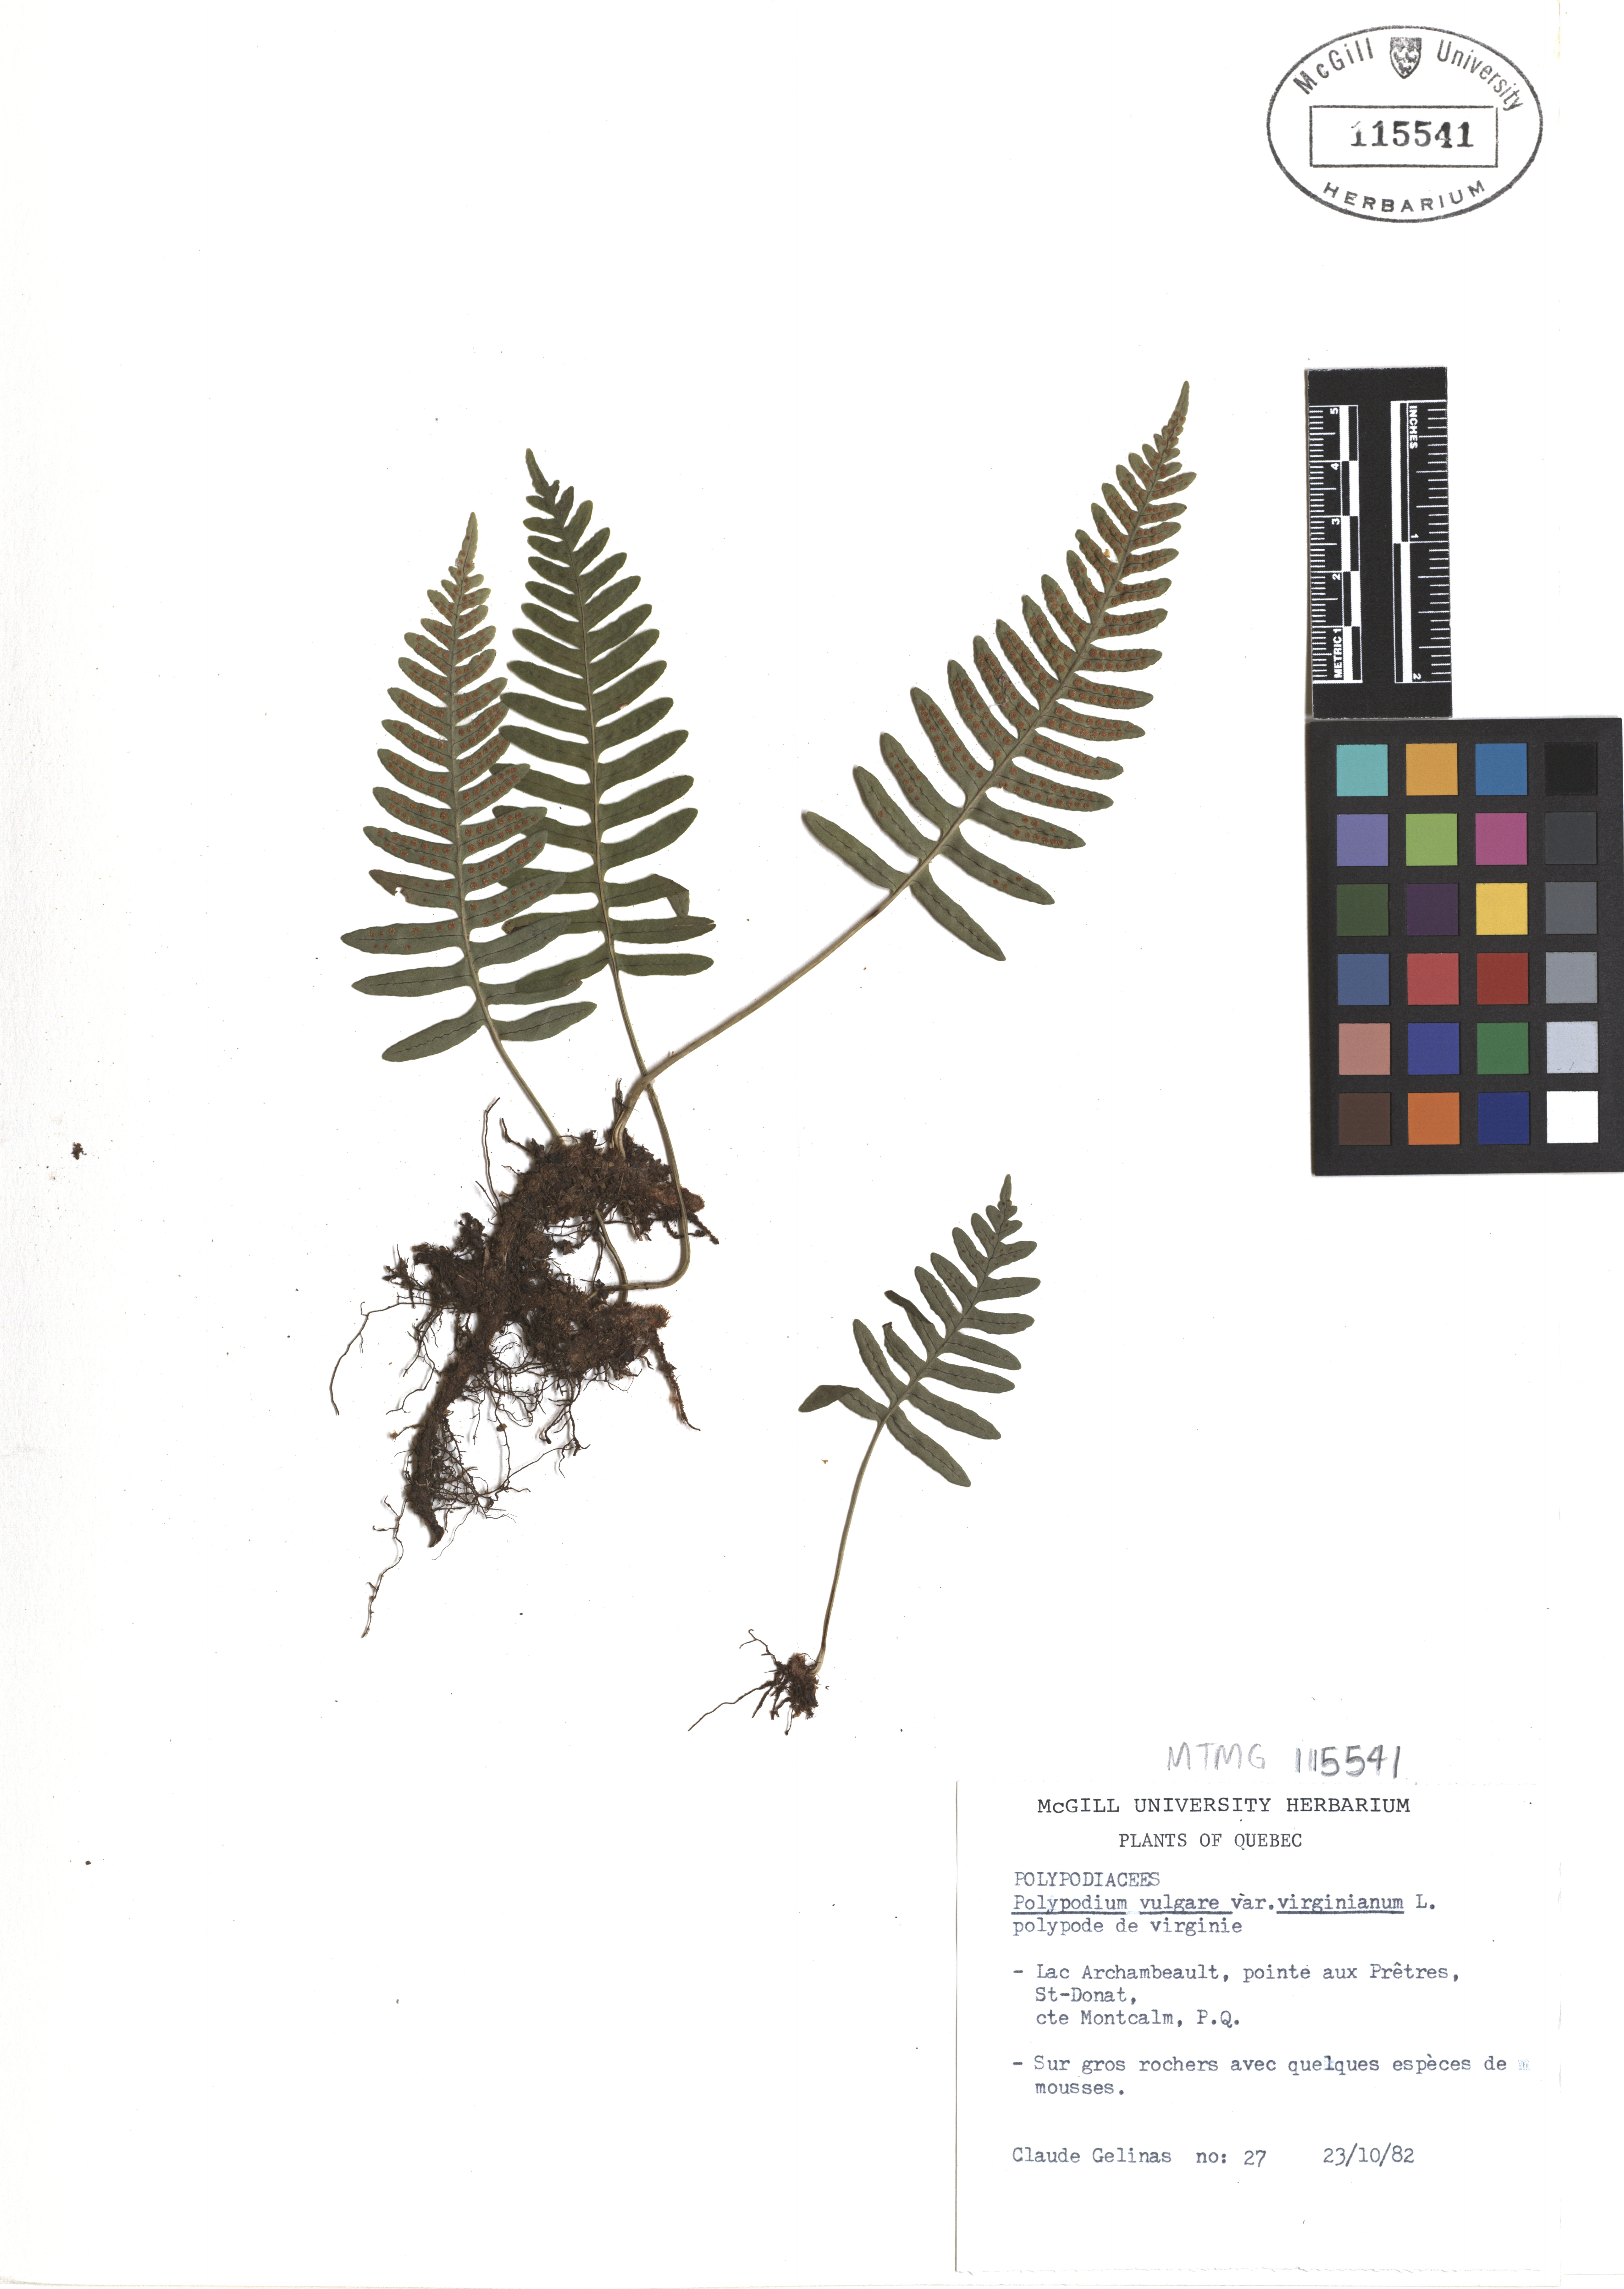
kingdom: Plantae
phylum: Tracheophyta
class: Polypodiopsida
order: Polypodiales
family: Polypodiaceae
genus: Polypodium
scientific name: Polypodium virginianum
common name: American wall fern
